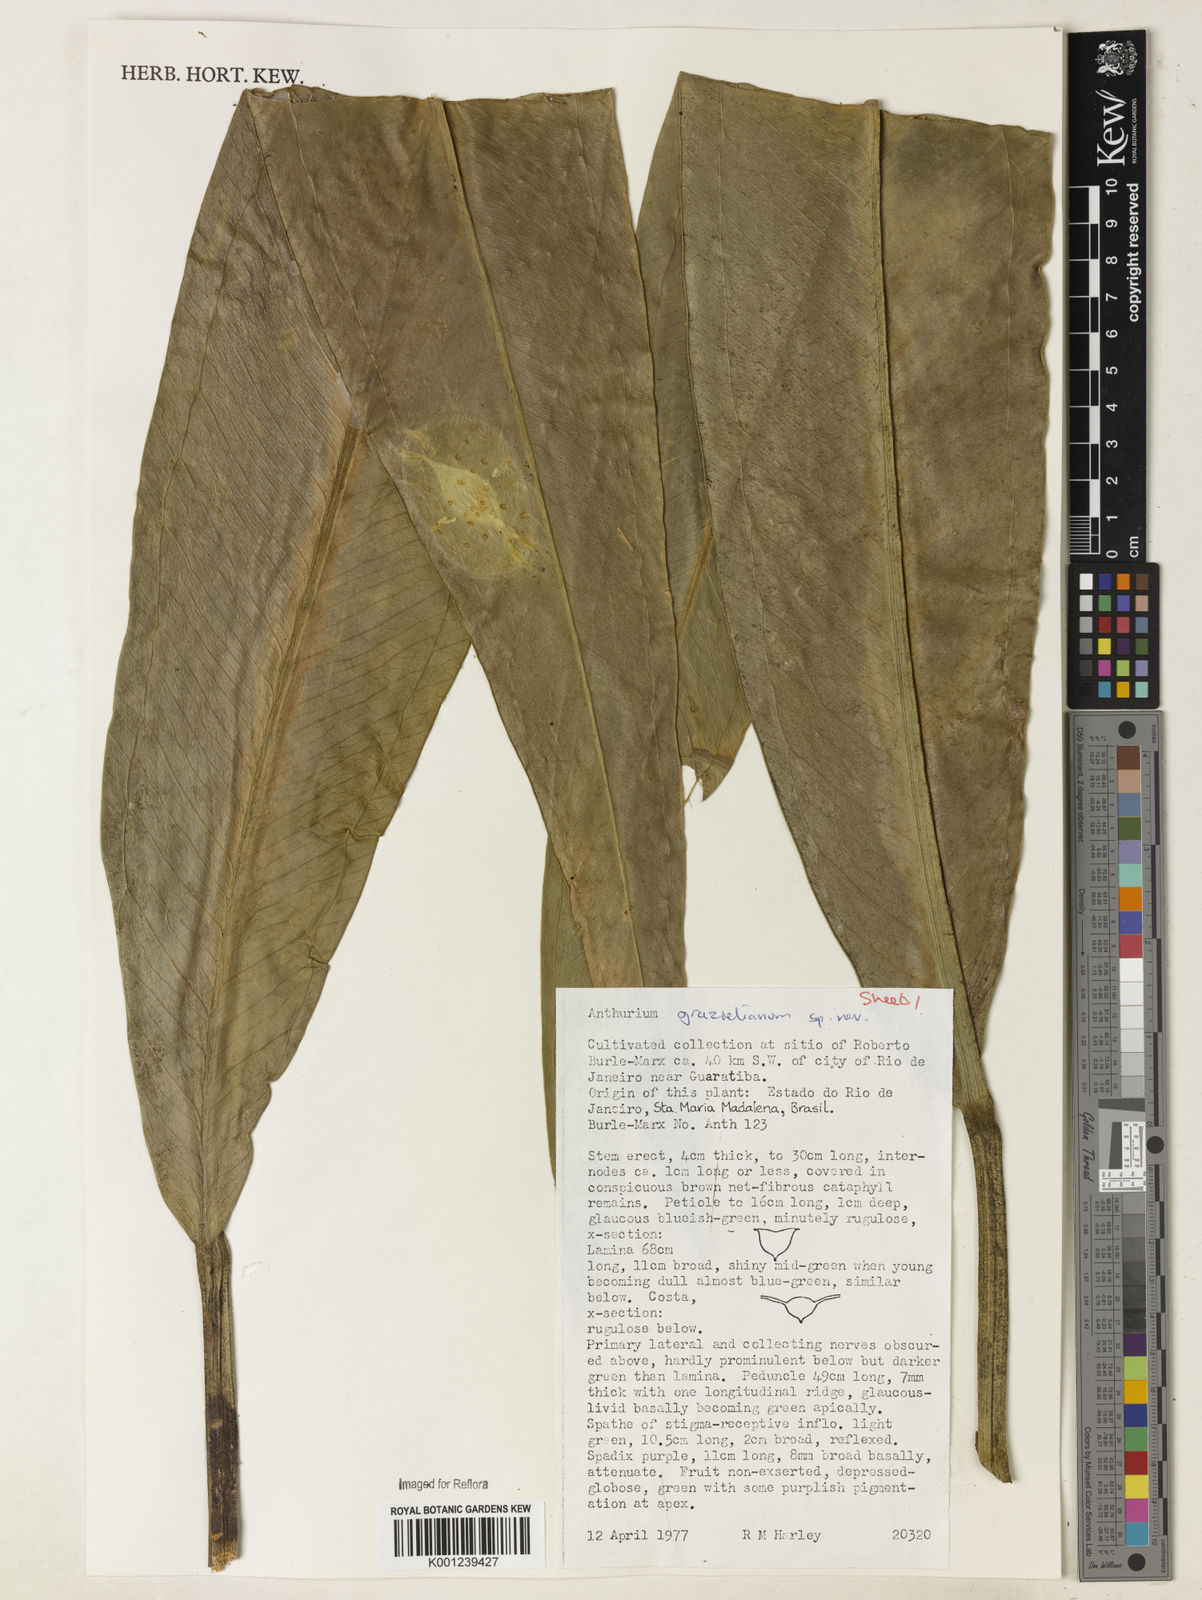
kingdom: Plantae
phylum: Tracheophyta
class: Liliopsida
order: Alismatales
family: Araceae
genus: Anthurium
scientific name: Anthurium
